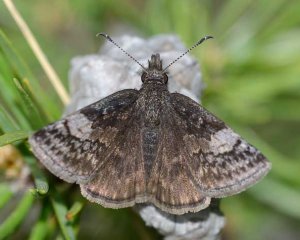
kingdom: Animalia
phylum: Arthropoda
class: Insecta
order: Lepidoptera
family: Hesperiidae
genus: Erynnis
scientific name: Erynnis icelus
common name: Dreamy Duskywing
